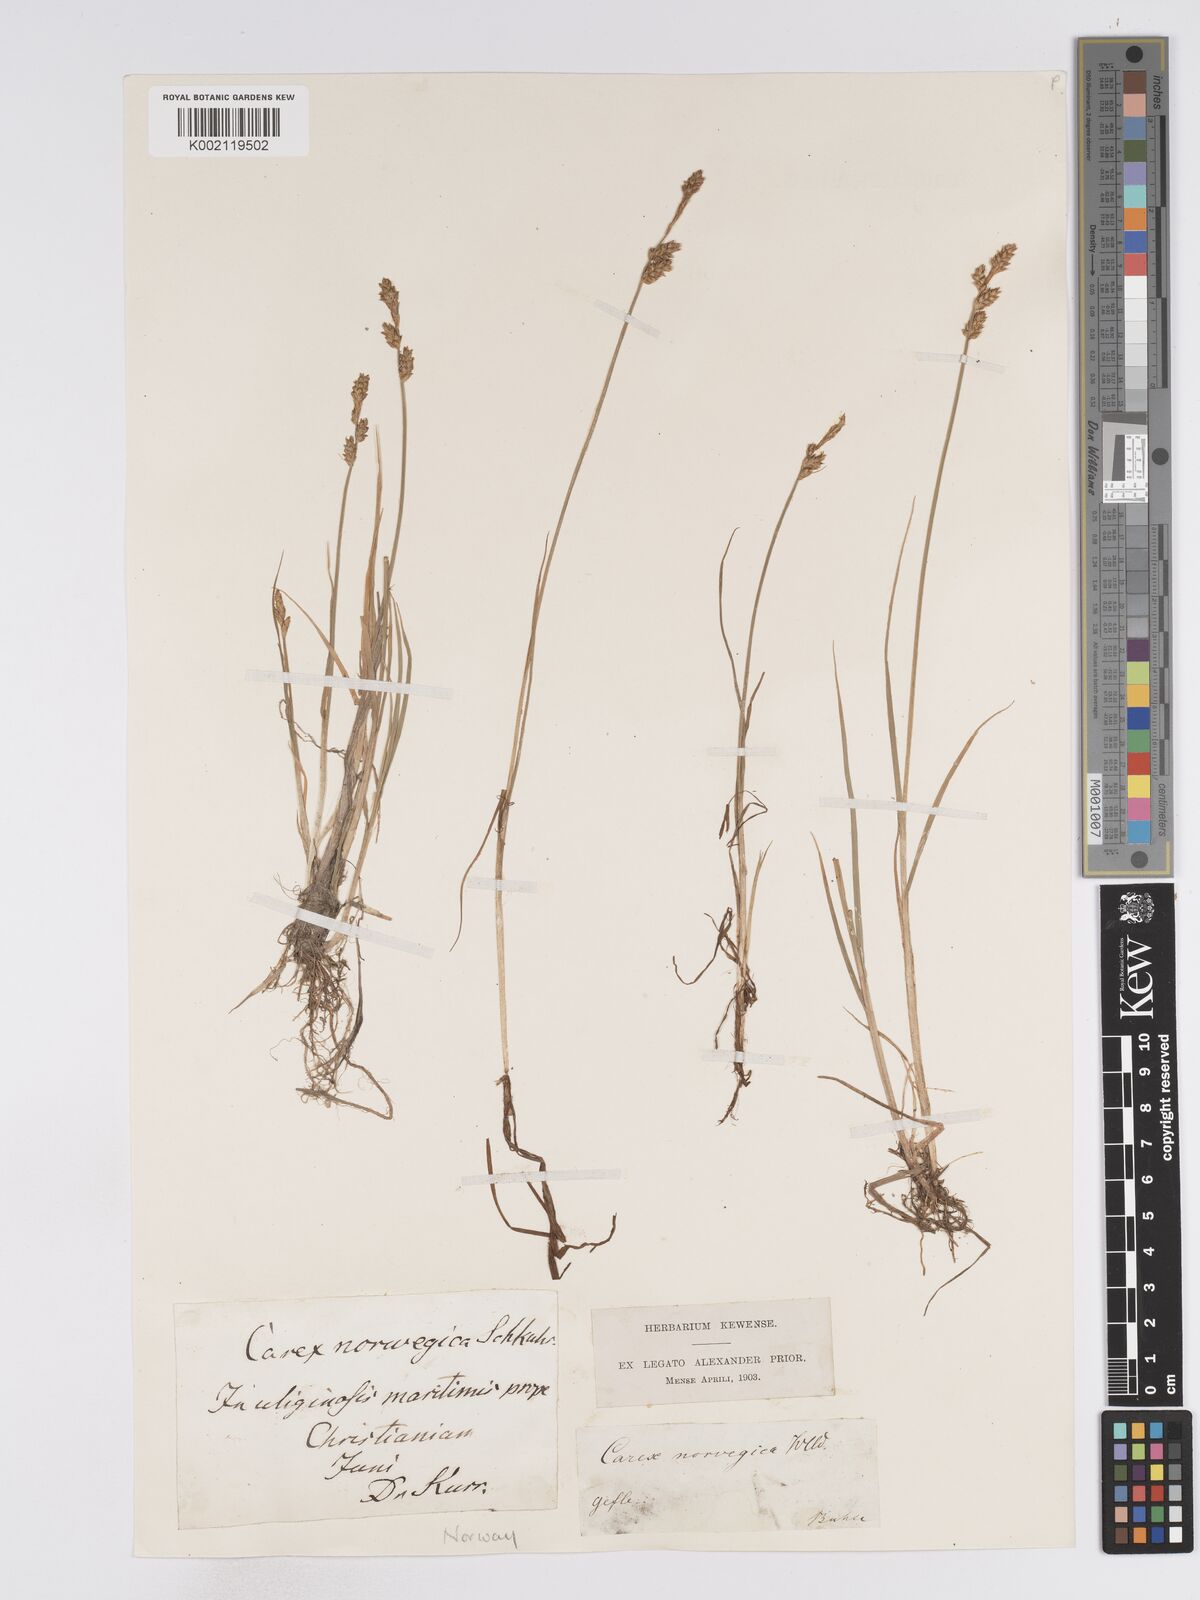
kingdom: Plantae
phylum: Tracheophyta
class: Liliopsida
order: Poales
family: Cyperaceae
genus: Carex
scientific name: Carex mackenziei
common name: Mackenzie's sedge
